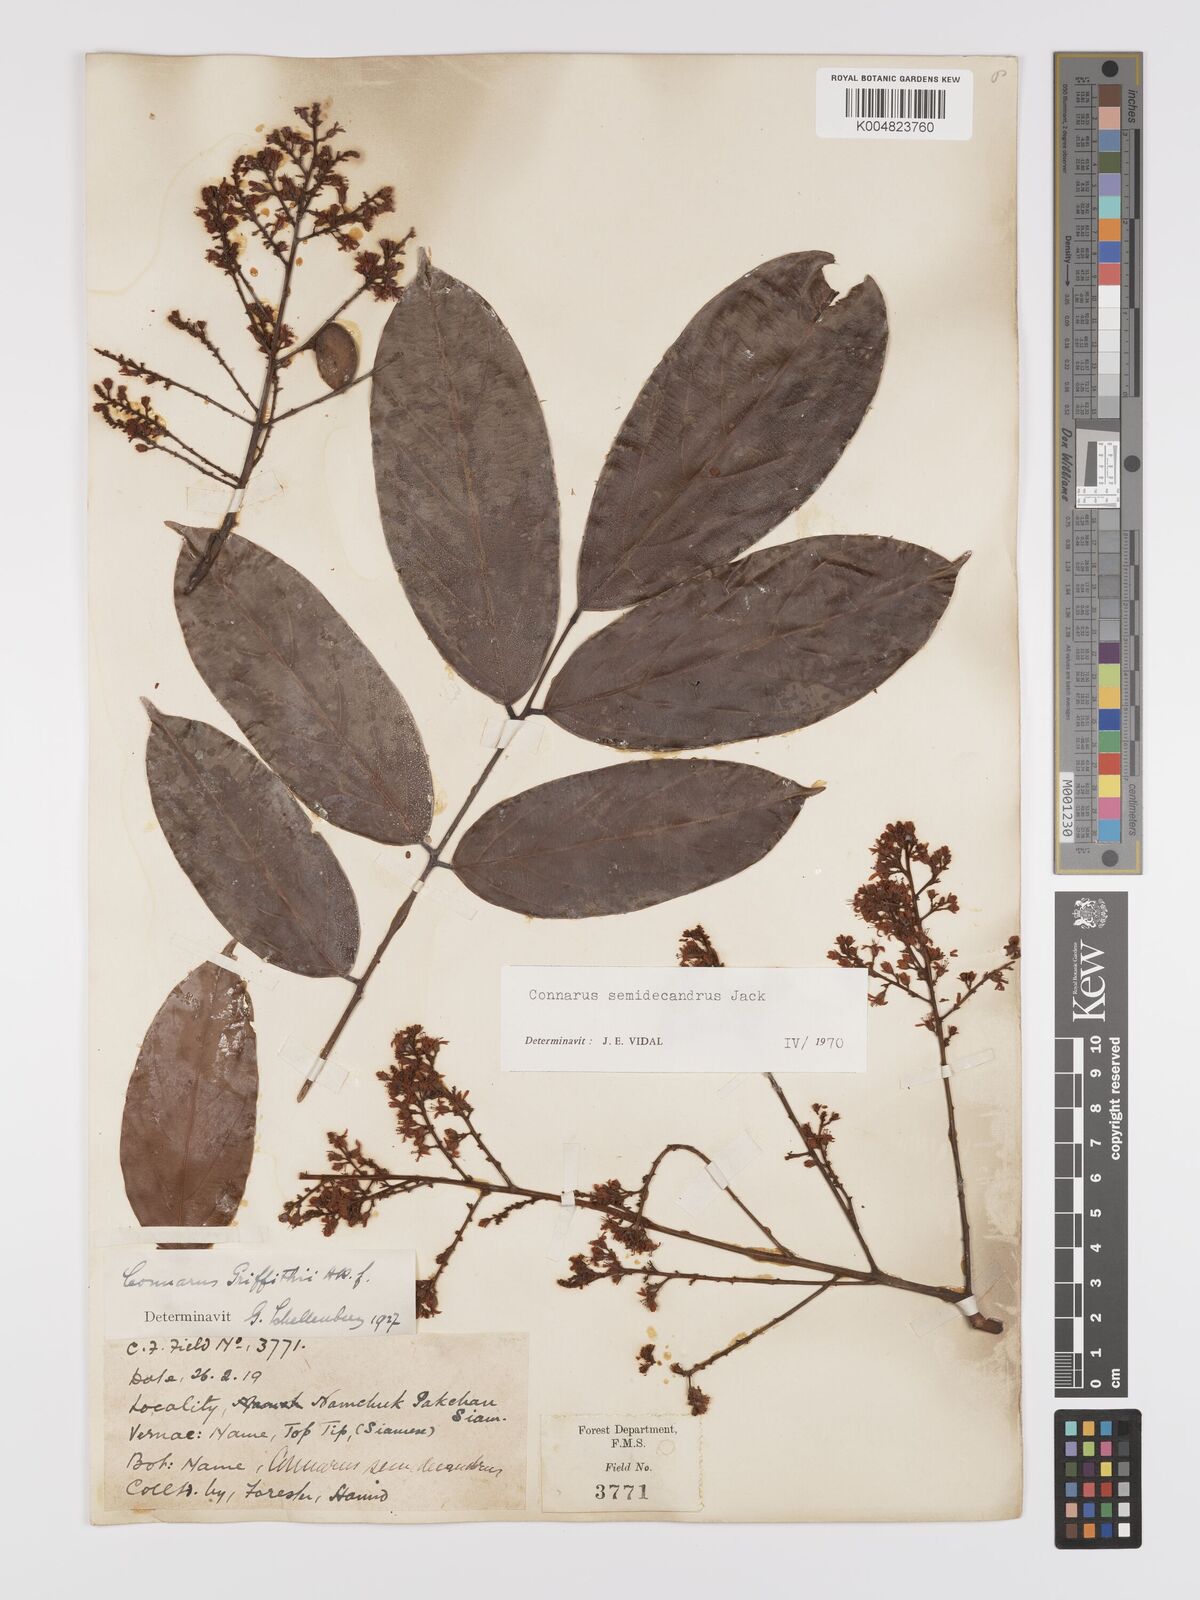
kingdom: Plantae
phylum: Tracheophyta
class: Magnoliopsida
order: Oxalidales
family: Connaraceae
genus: Connarus
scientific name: Connarus semidecandrus
